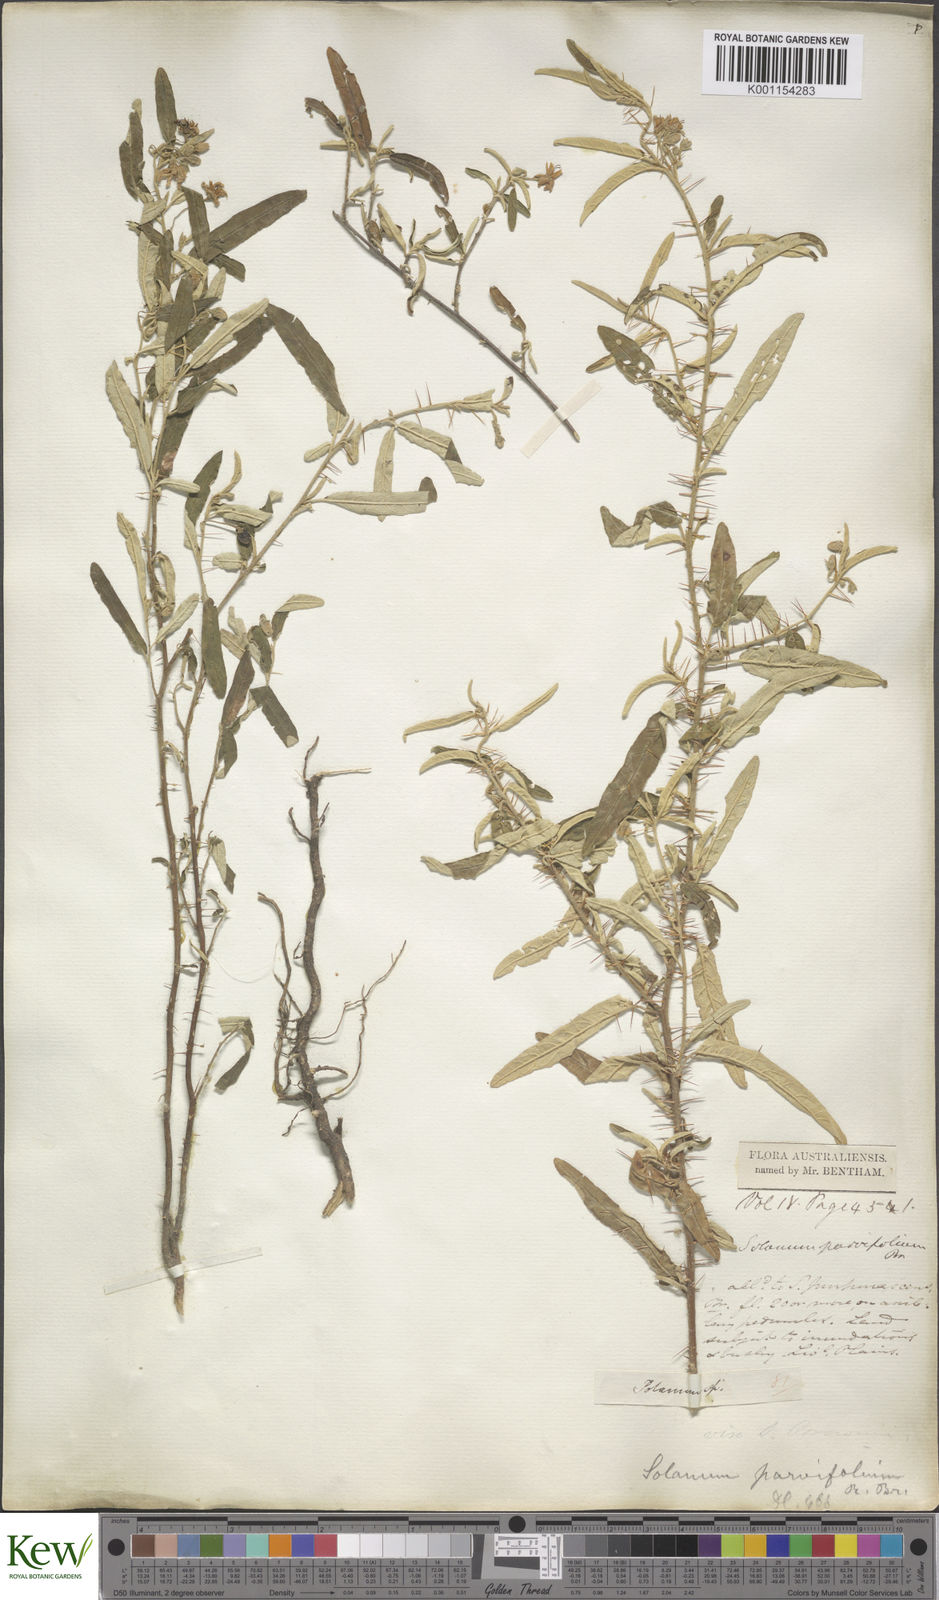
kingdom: Plantae
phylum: Tracheophyta
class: Magnoliopsida
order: Solanales
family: Solanaceae
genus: Solanum
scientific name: Solanum parvifolium
